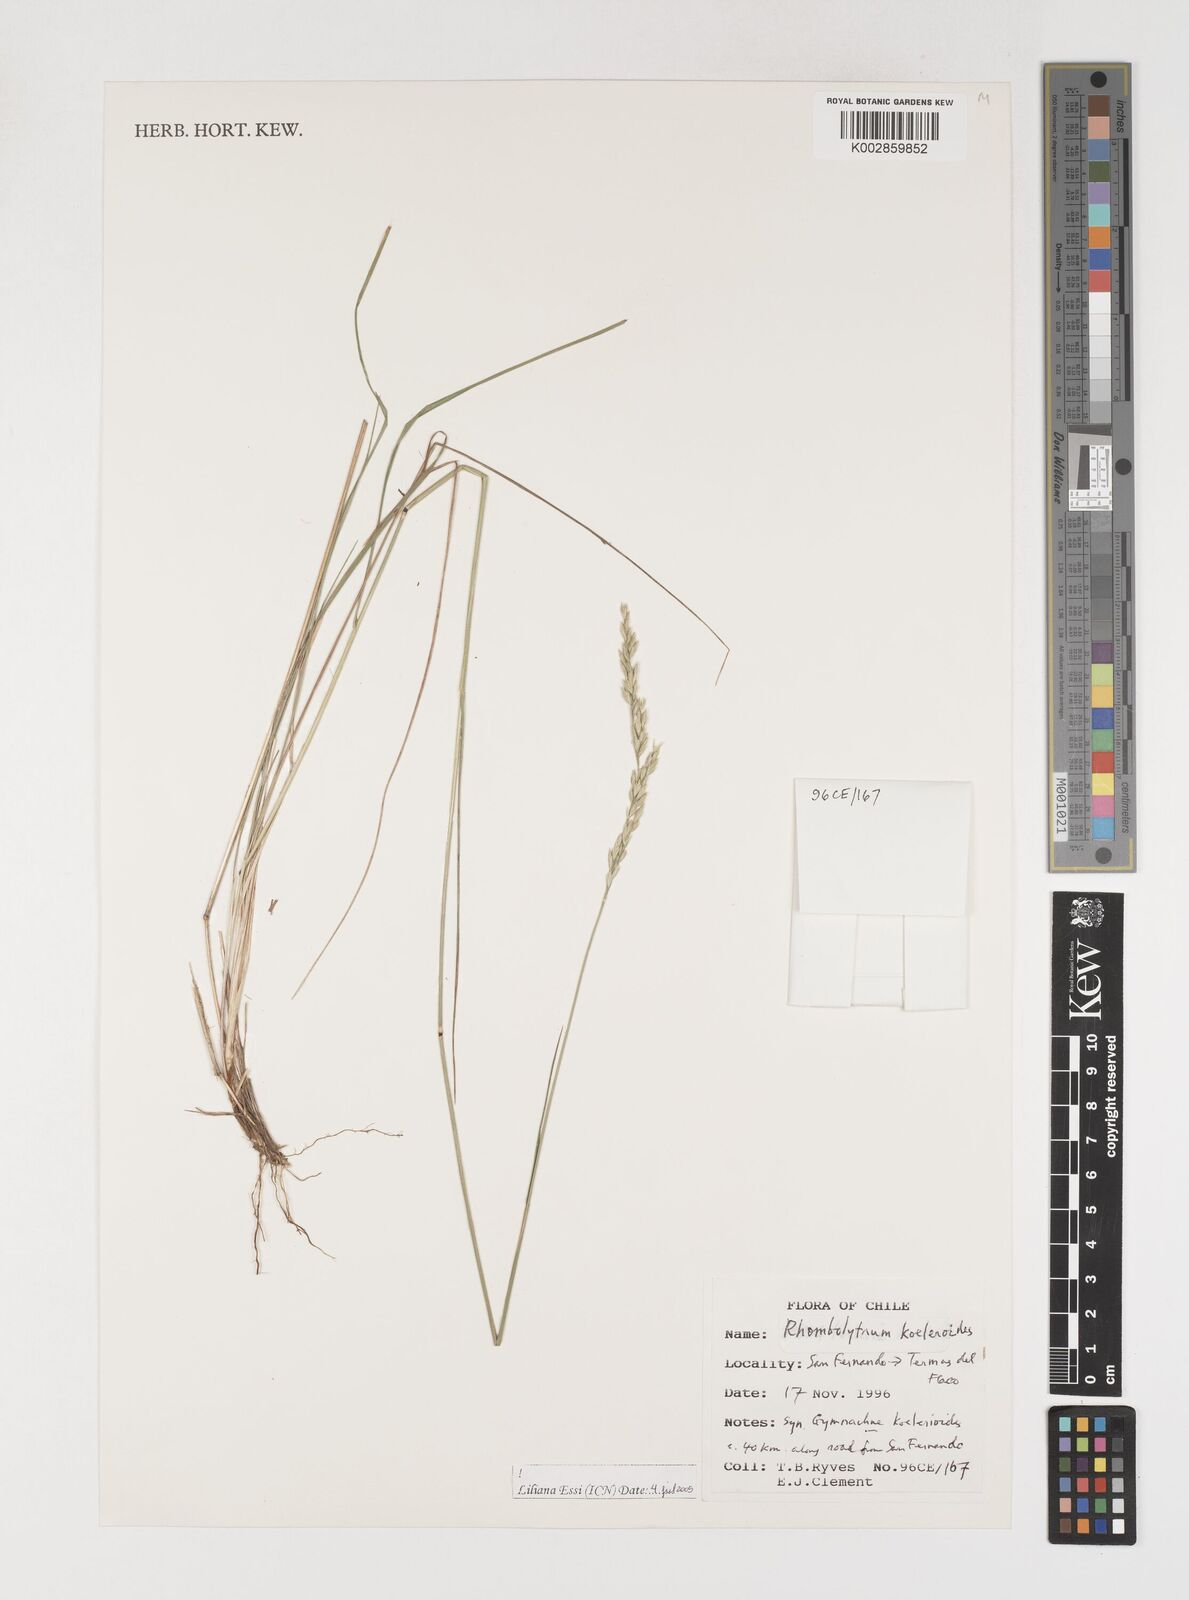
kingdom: Plantae
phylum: Tracheophyta
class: Liliopsida
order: Poales
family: Poaceae
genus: Rhombolytrum
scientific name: Rhombolytrum
